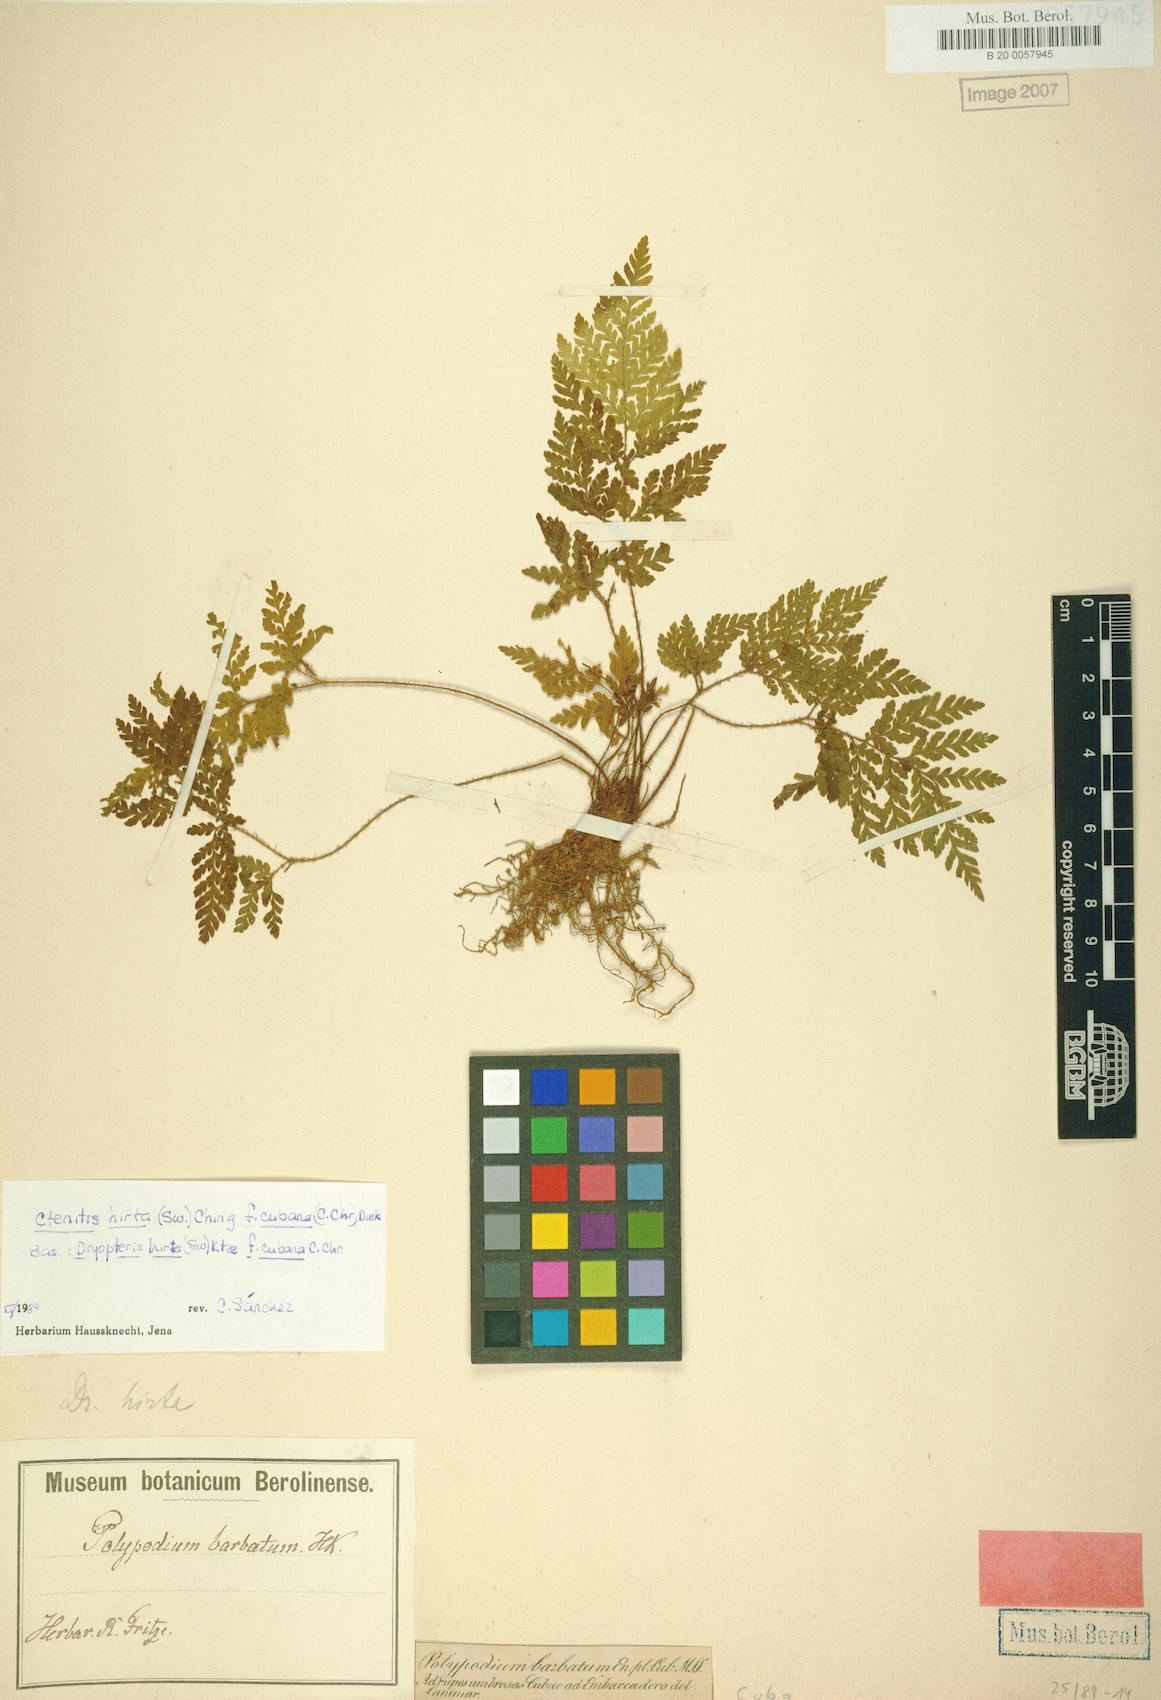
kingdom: Plantae
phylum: Tracheophyta
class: Polypodiopsida
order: Polypodiales
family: Dryopteridaceae
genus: Ctenitis
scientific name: Ctenitis hirta
